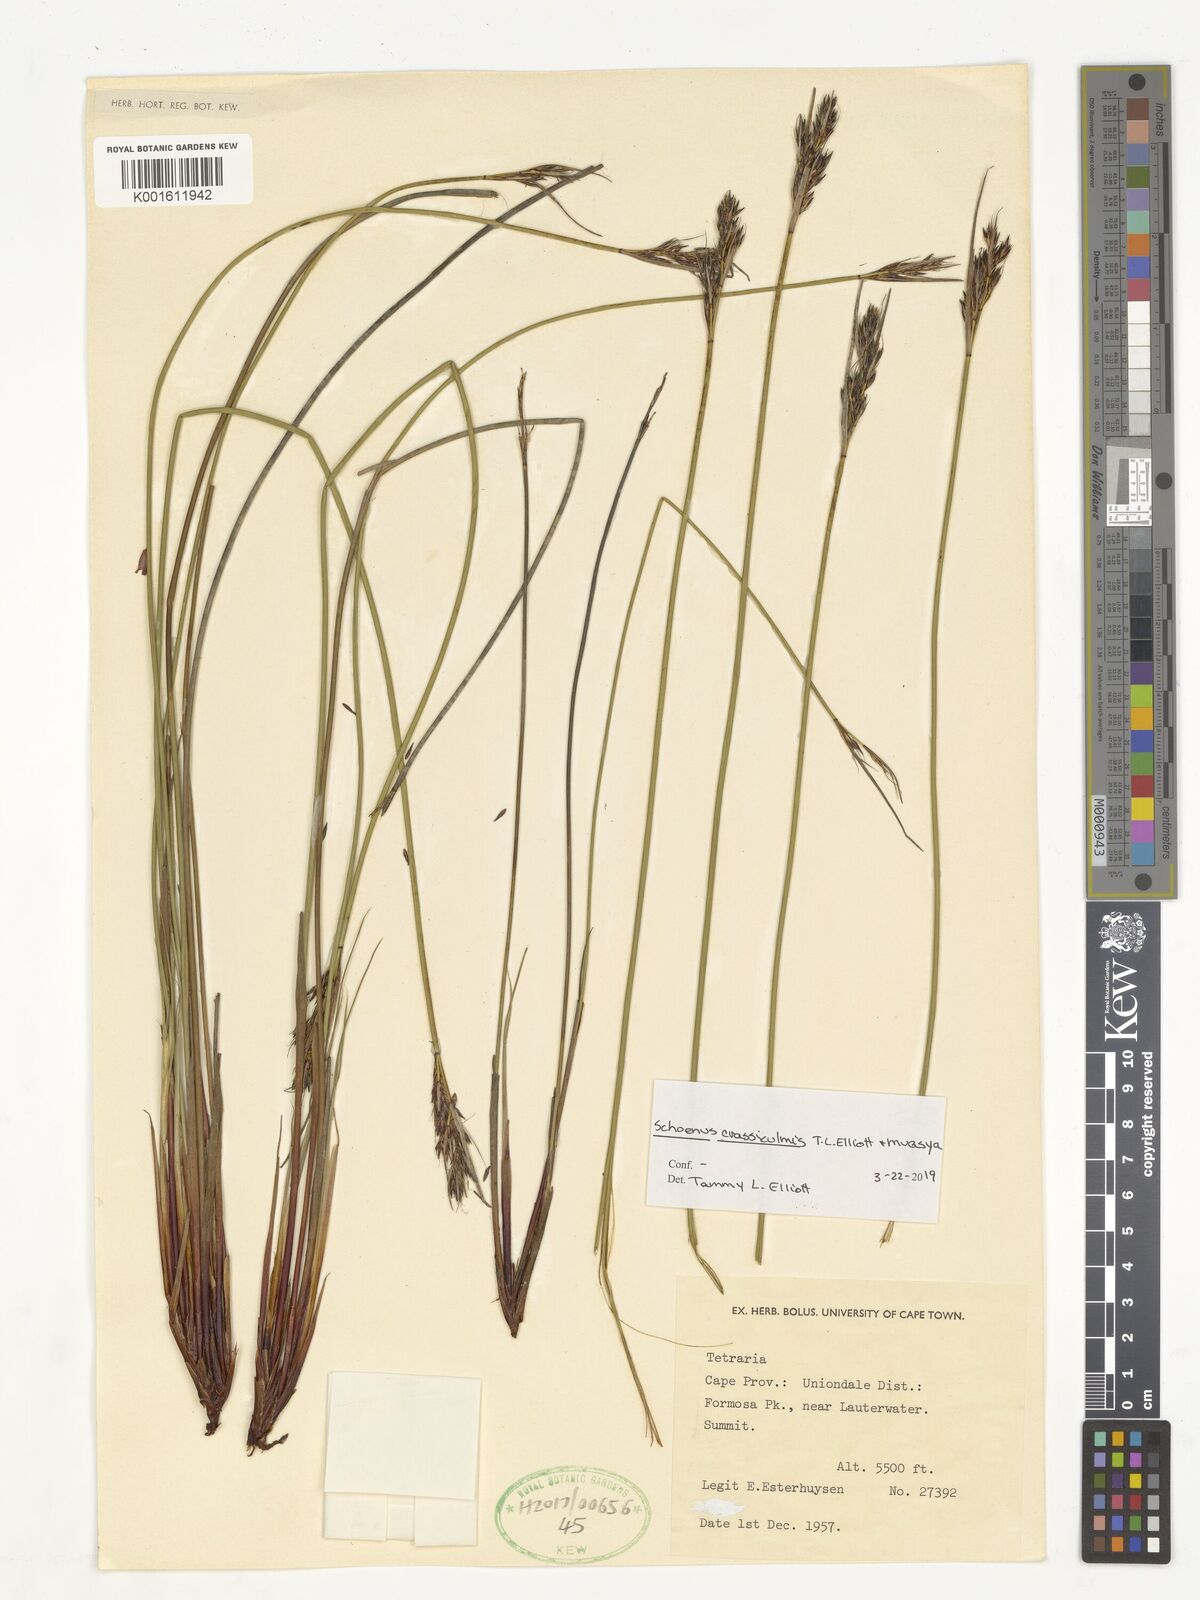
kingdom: Plantae
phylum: Tracheophyta
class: Liliopsida
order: Poales
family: Cyperaceae
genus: Schoenus
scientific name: Schoenus crassiculmis
